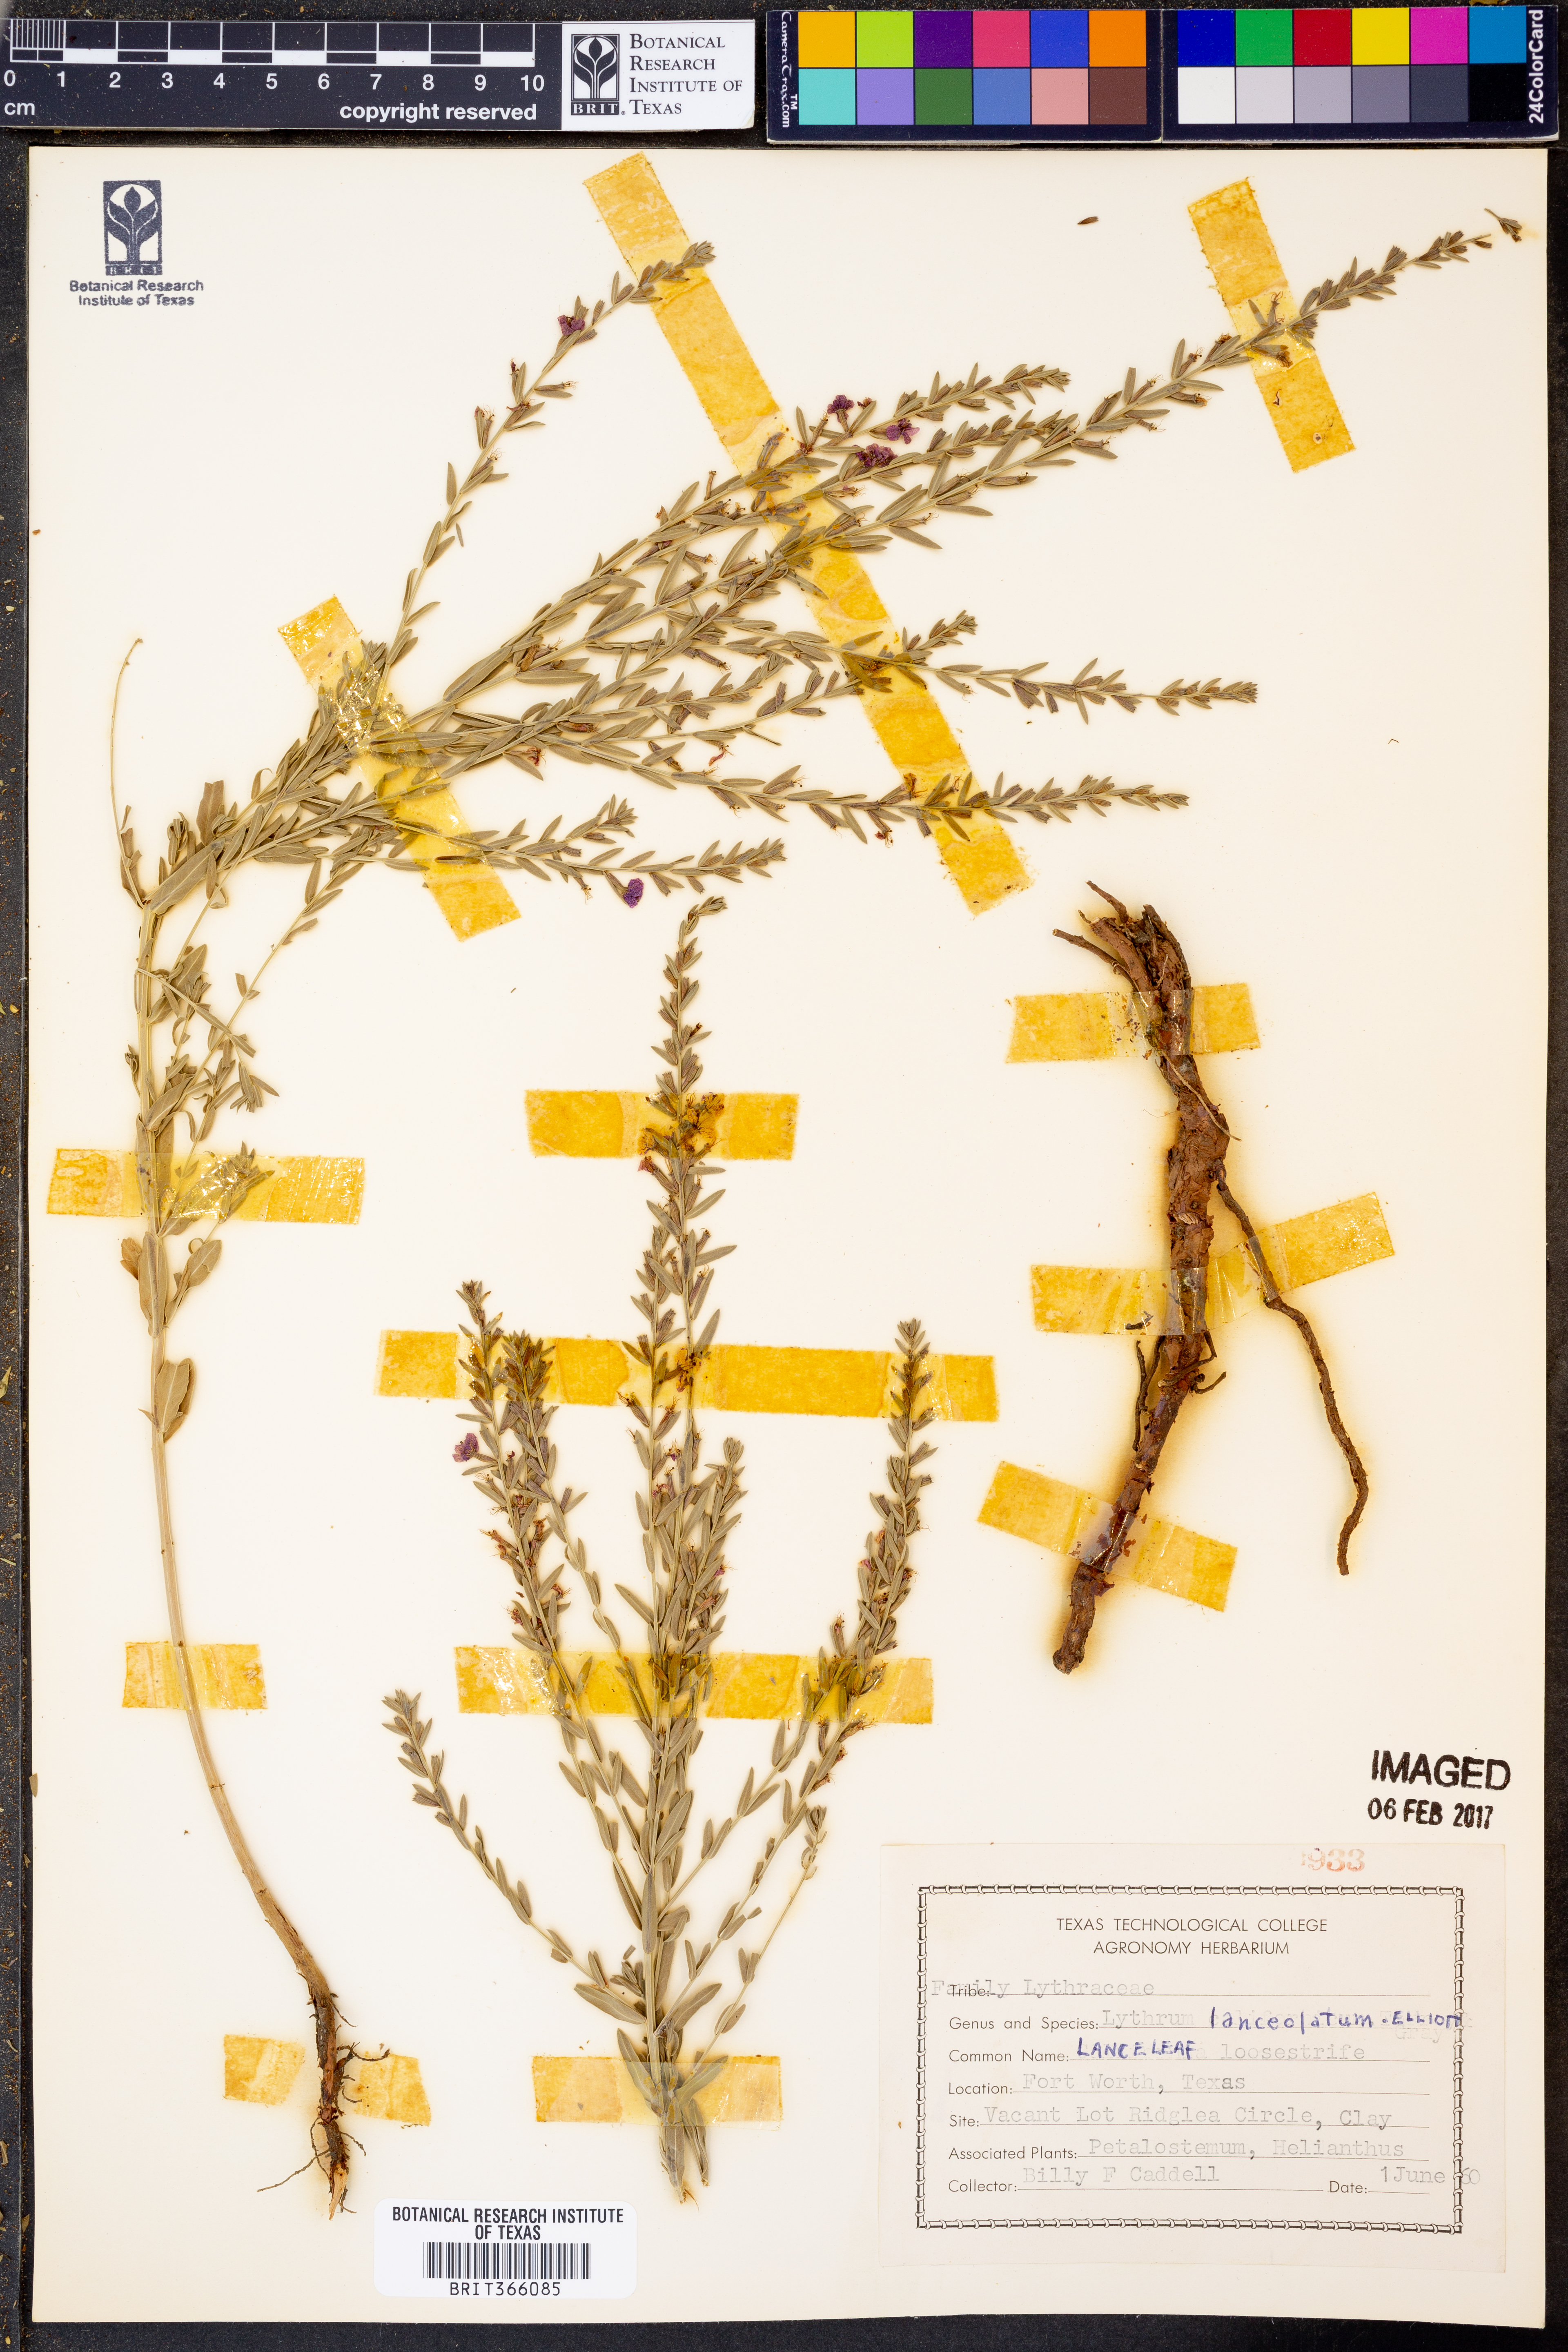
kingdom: Plantae
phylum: Tracheophyta
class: Magnoliopsida
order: Myrtales
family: Lythraceae
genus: Lythrum
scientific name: Lythrum alatum
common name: Winged loosestrife
